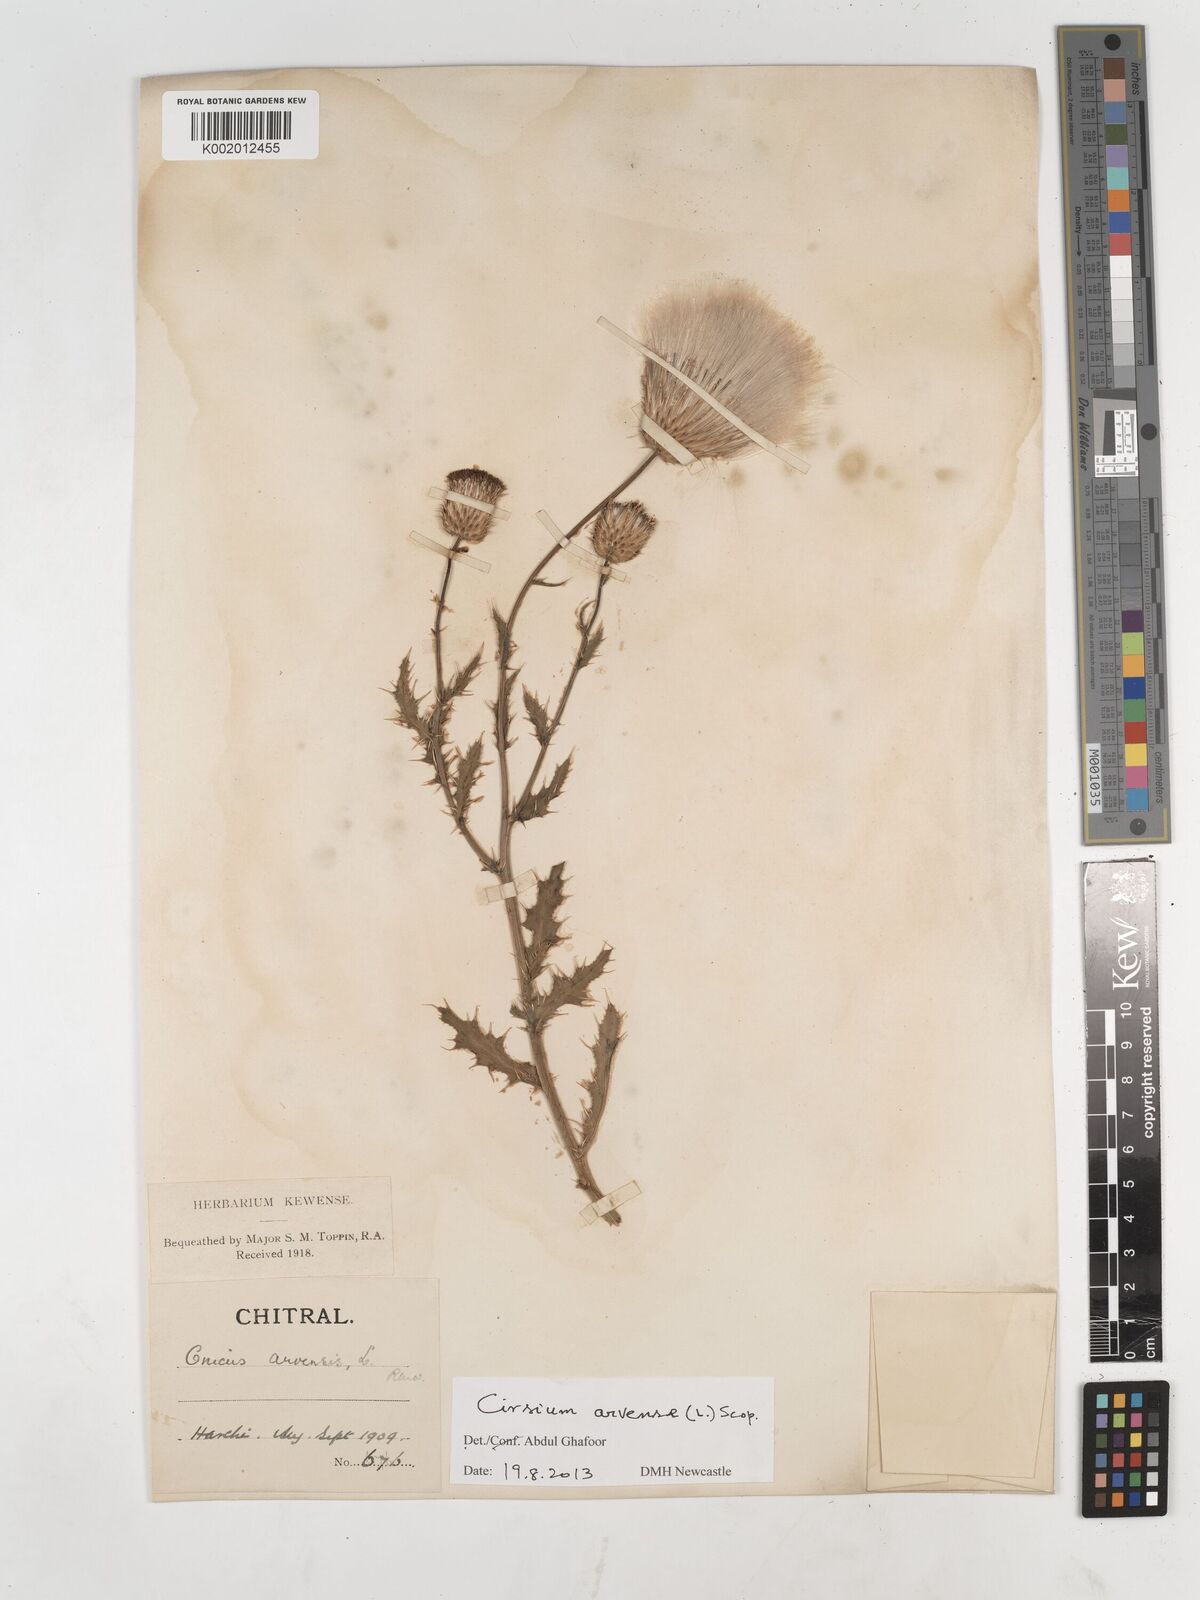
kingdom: Plantae
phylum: Tracheophyta
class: Magnoliopsida
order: Asterales
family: Asteraceae
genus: Cirsium
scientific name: Cirsium arvense
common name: Creeping thistle
